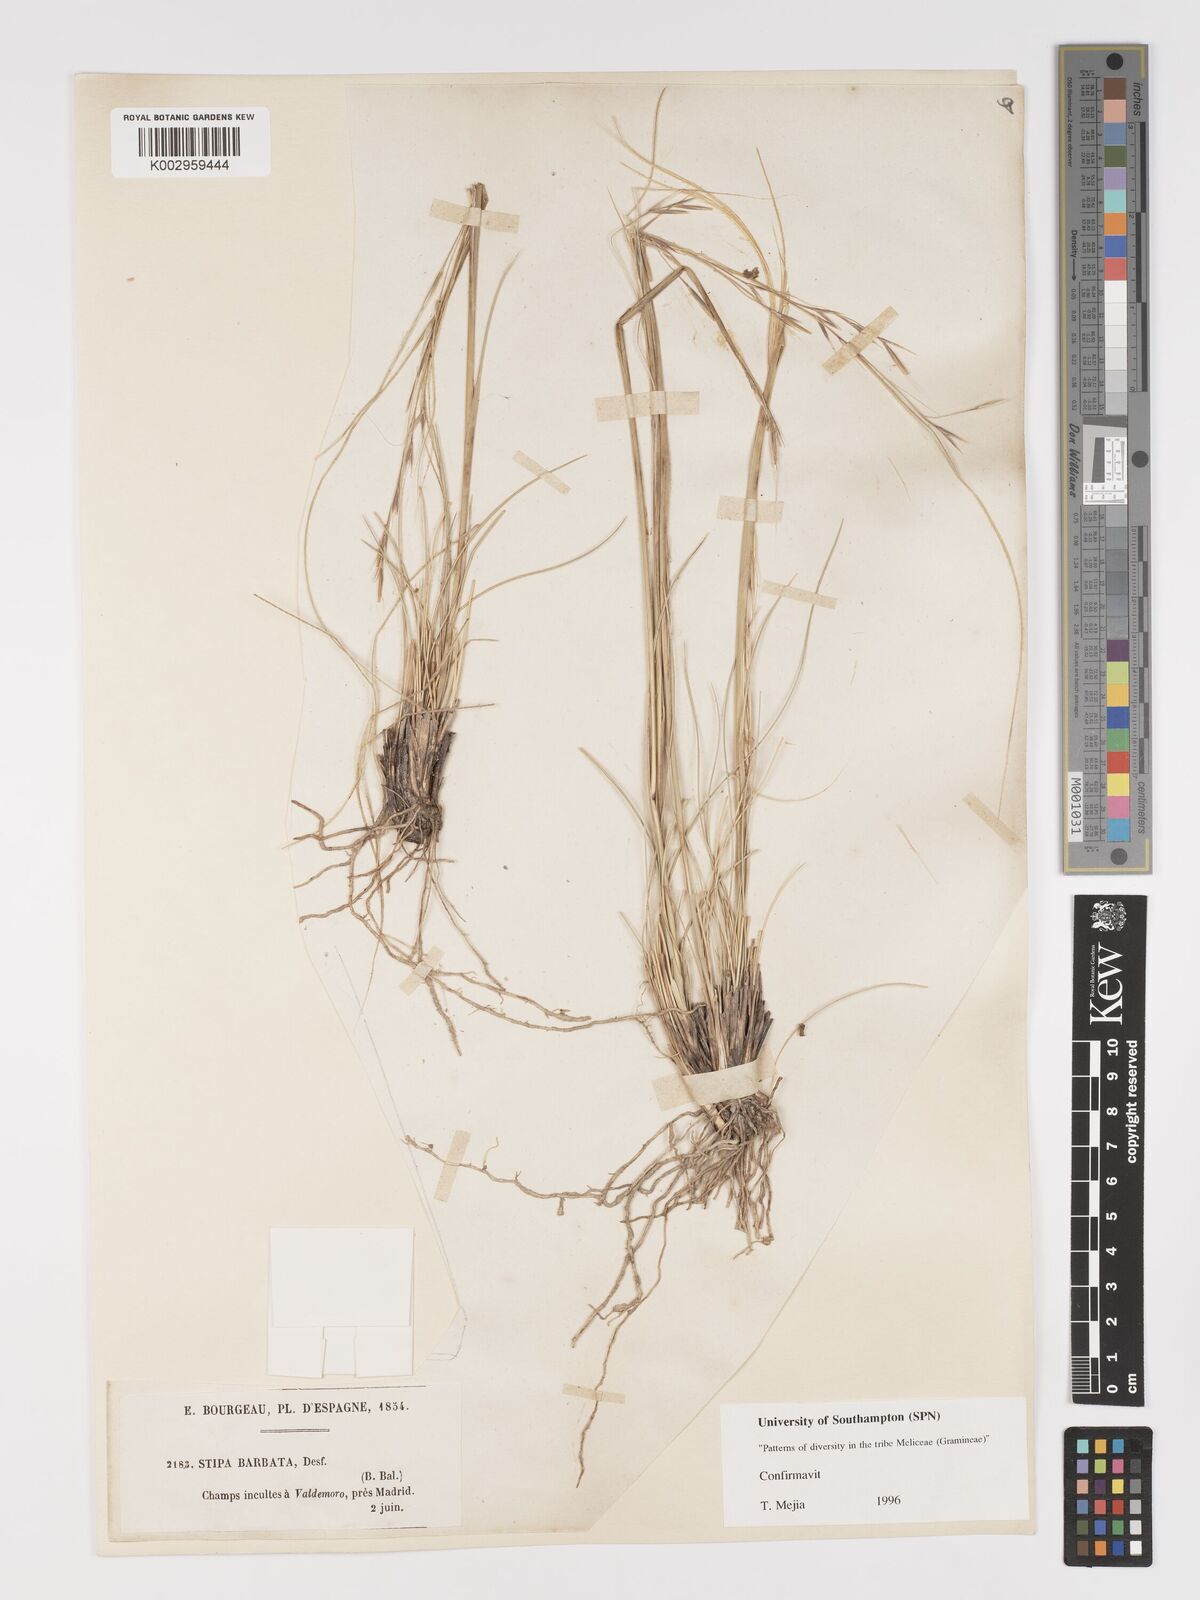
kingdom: Plantae
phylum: Tracheophyta
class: Liliopsida
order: Poales
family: Poaceae
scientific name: Poaceae
